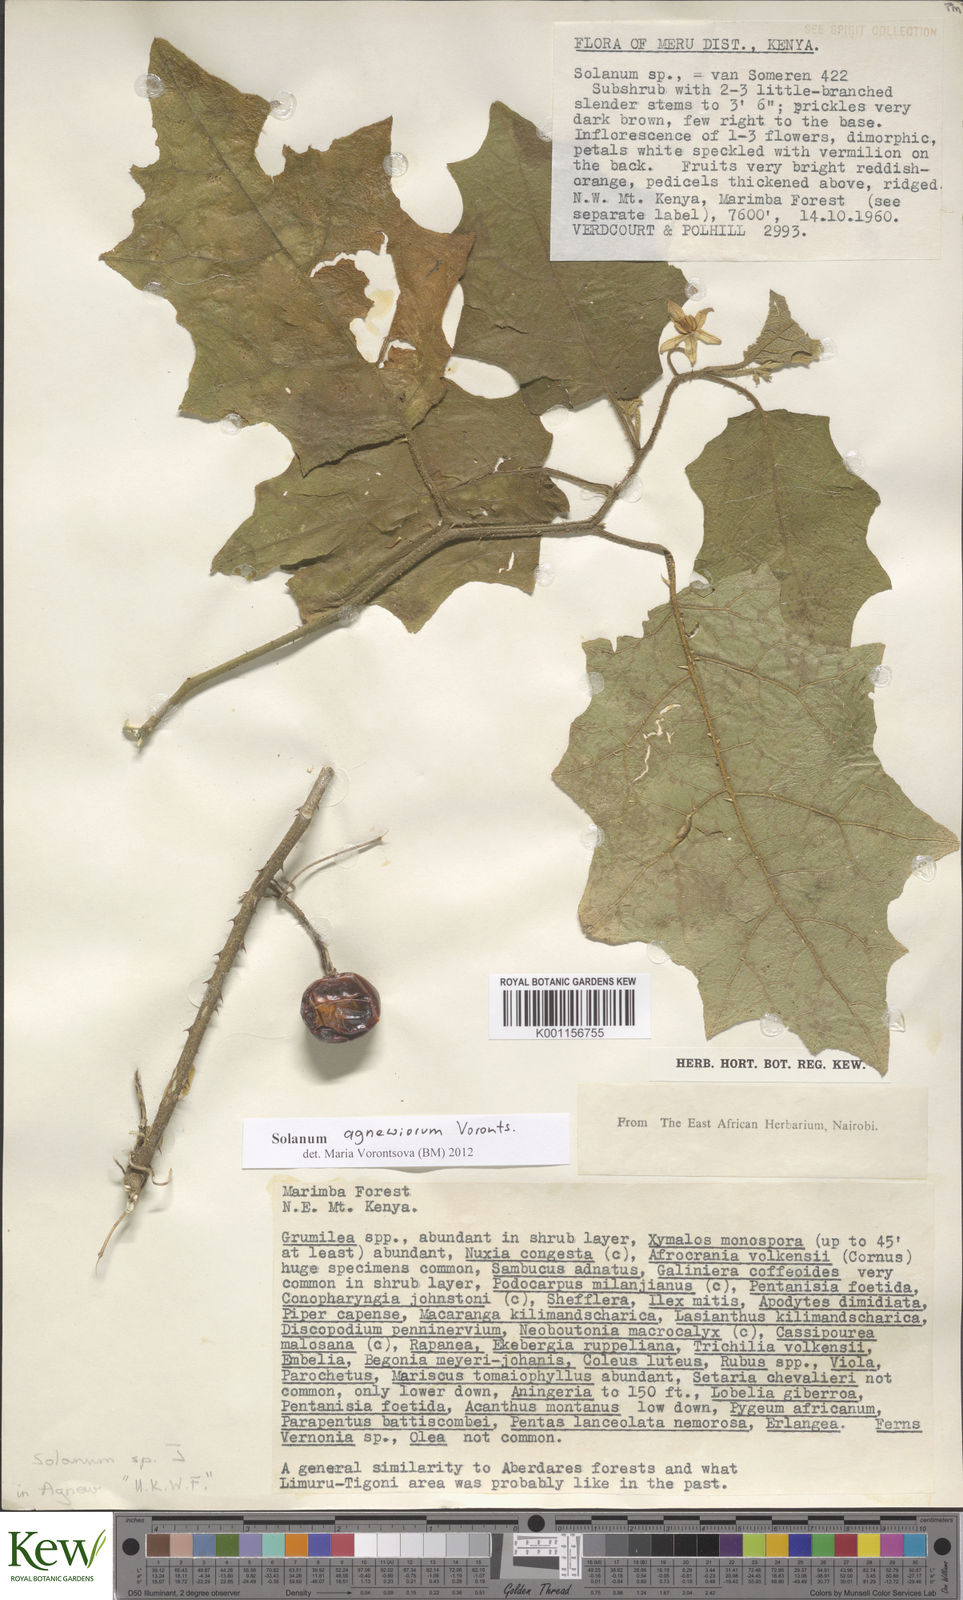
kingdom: Plantae
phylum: Tracheophyta
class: Magnoliopsida
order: Solanales
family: Solanaceae
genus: Solanum
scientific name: Solanum agnewiorum
